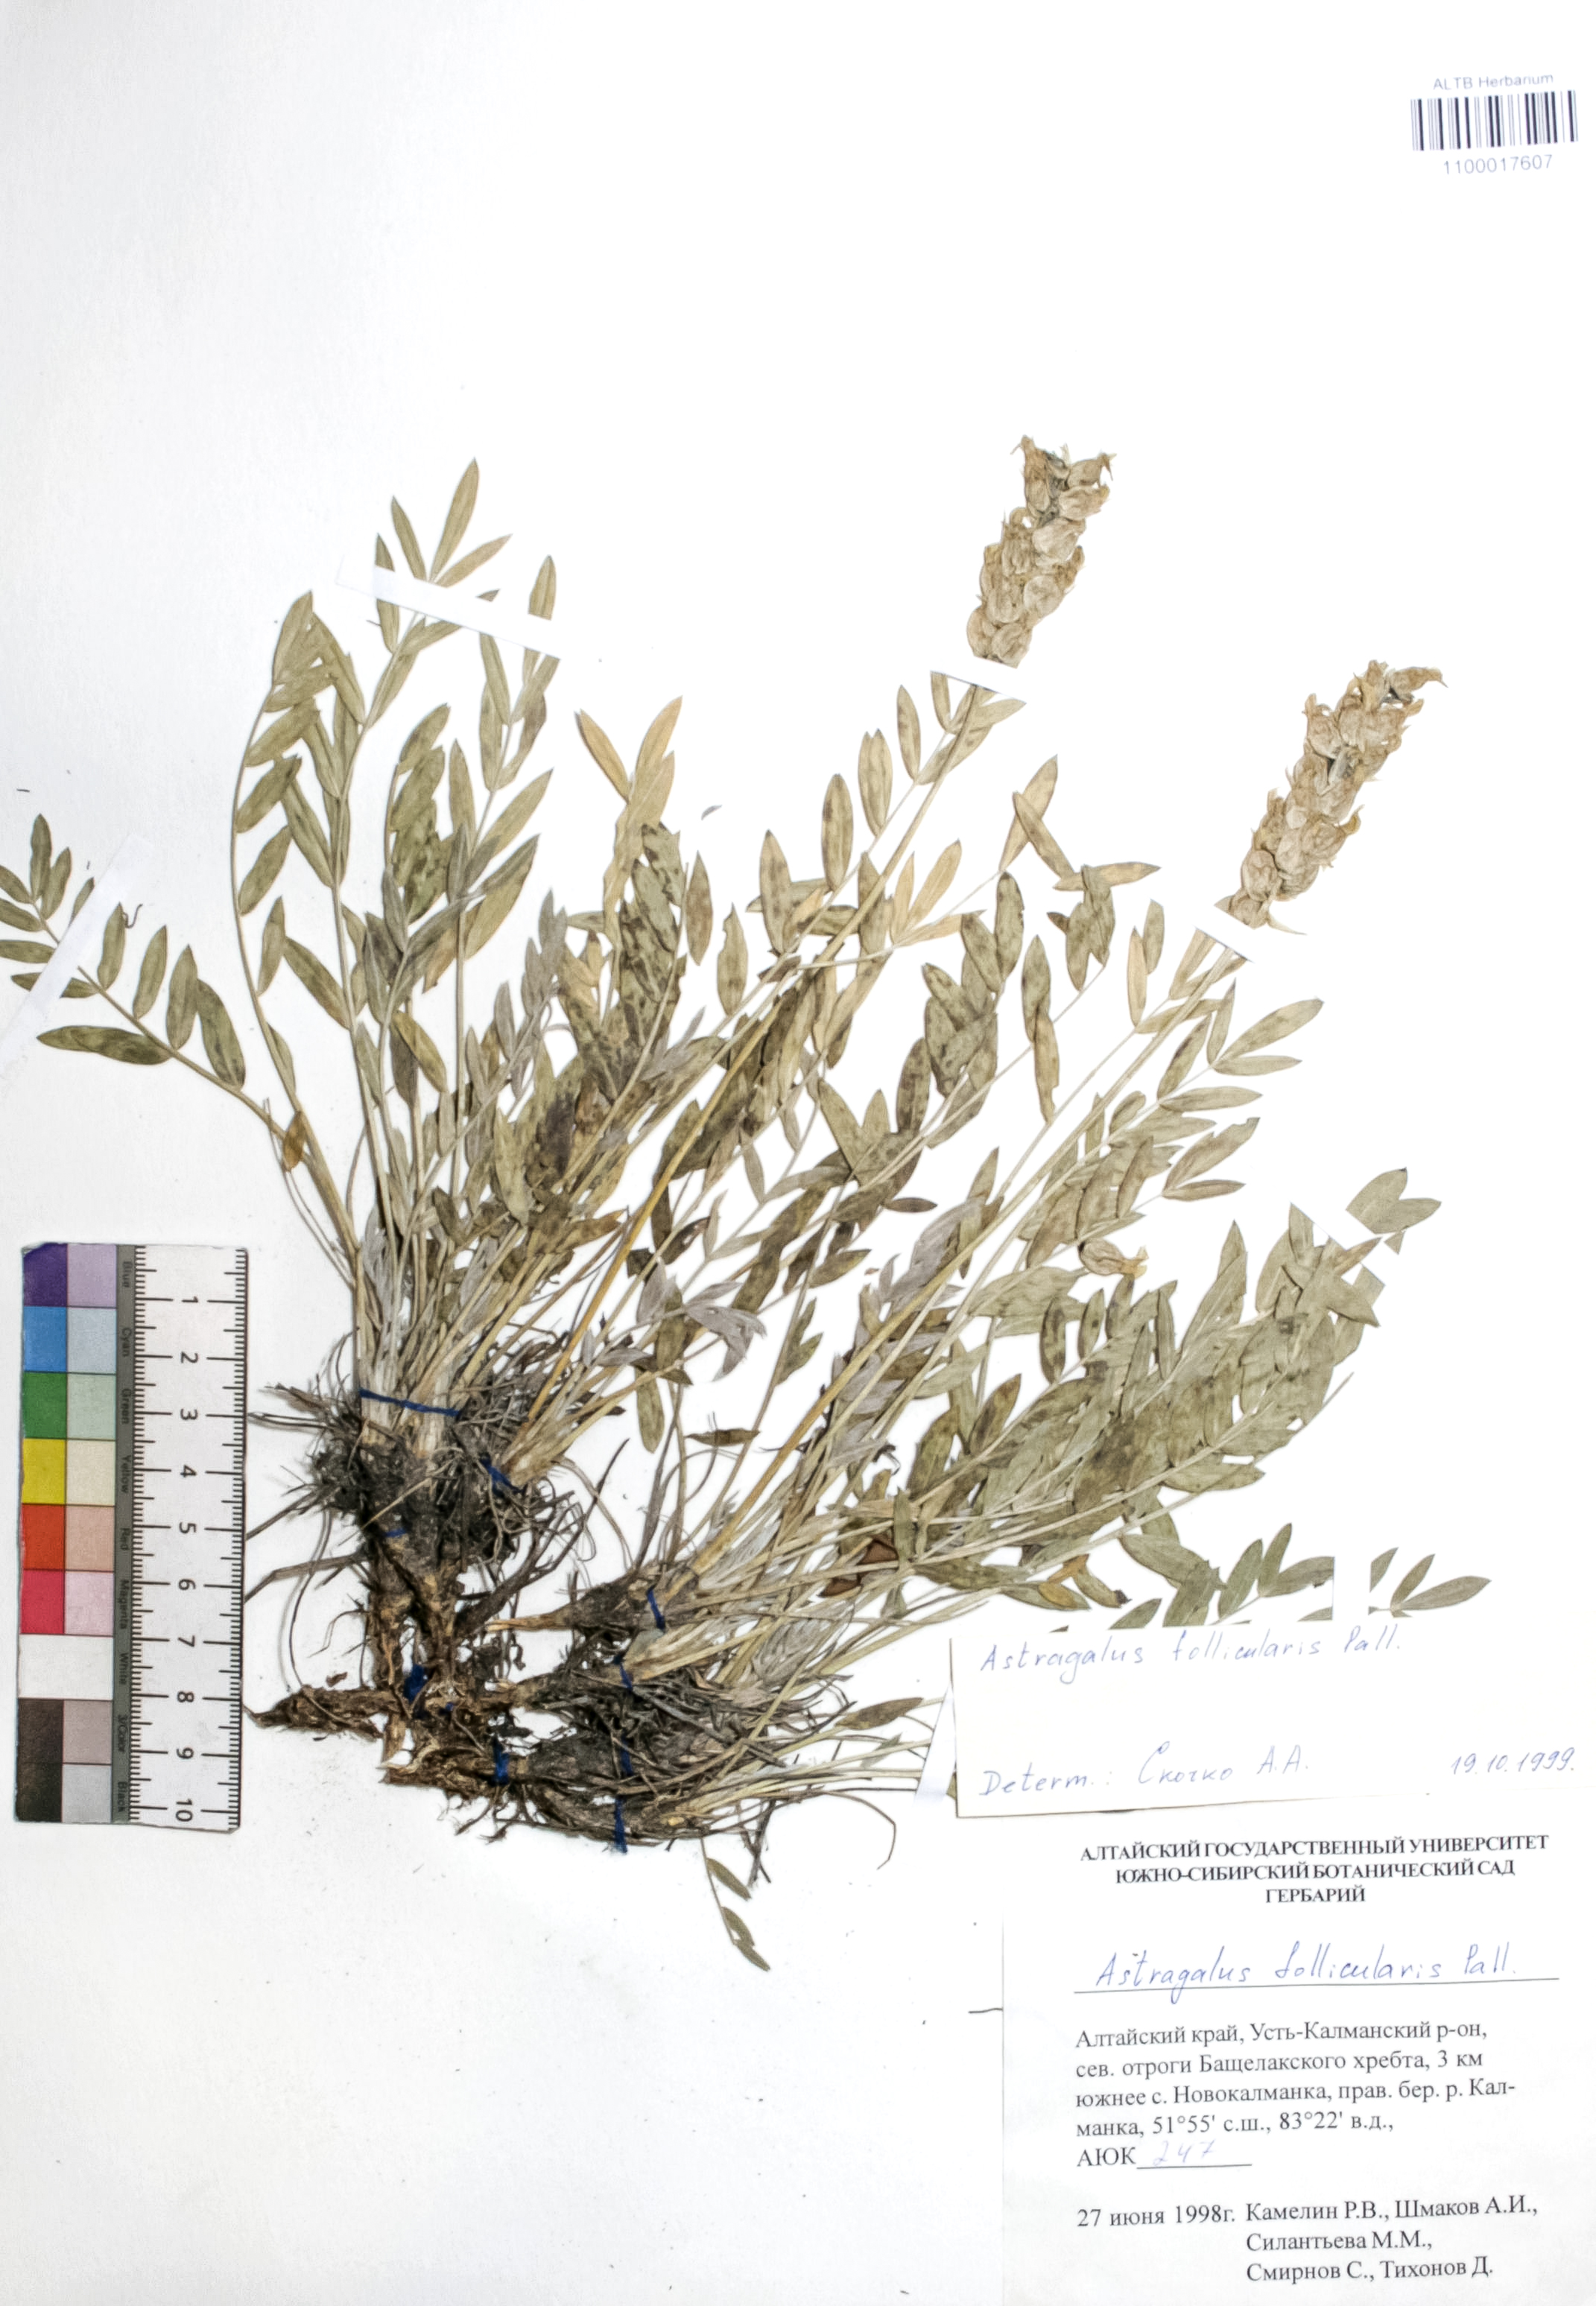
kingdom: Plantae
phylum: Tracheophyta
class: Magnoliopsida
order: Fabales
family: Fabaceae
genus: Astragalus
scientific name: Astragalus follicularis
